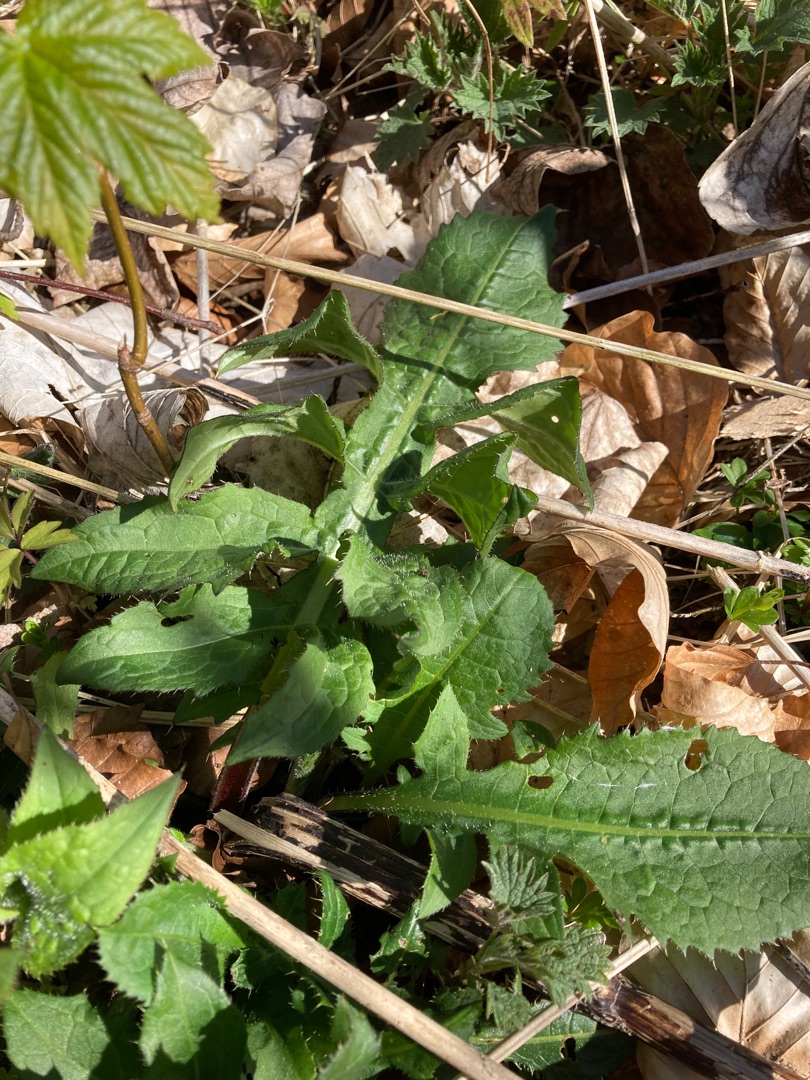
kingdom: Plantae
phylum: Tracheophyta
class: Magnoliopsida
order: Asterales
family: Asteraceae
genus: Cirsium
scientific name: Cirsium oleraceum
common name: Kål-tidsel
